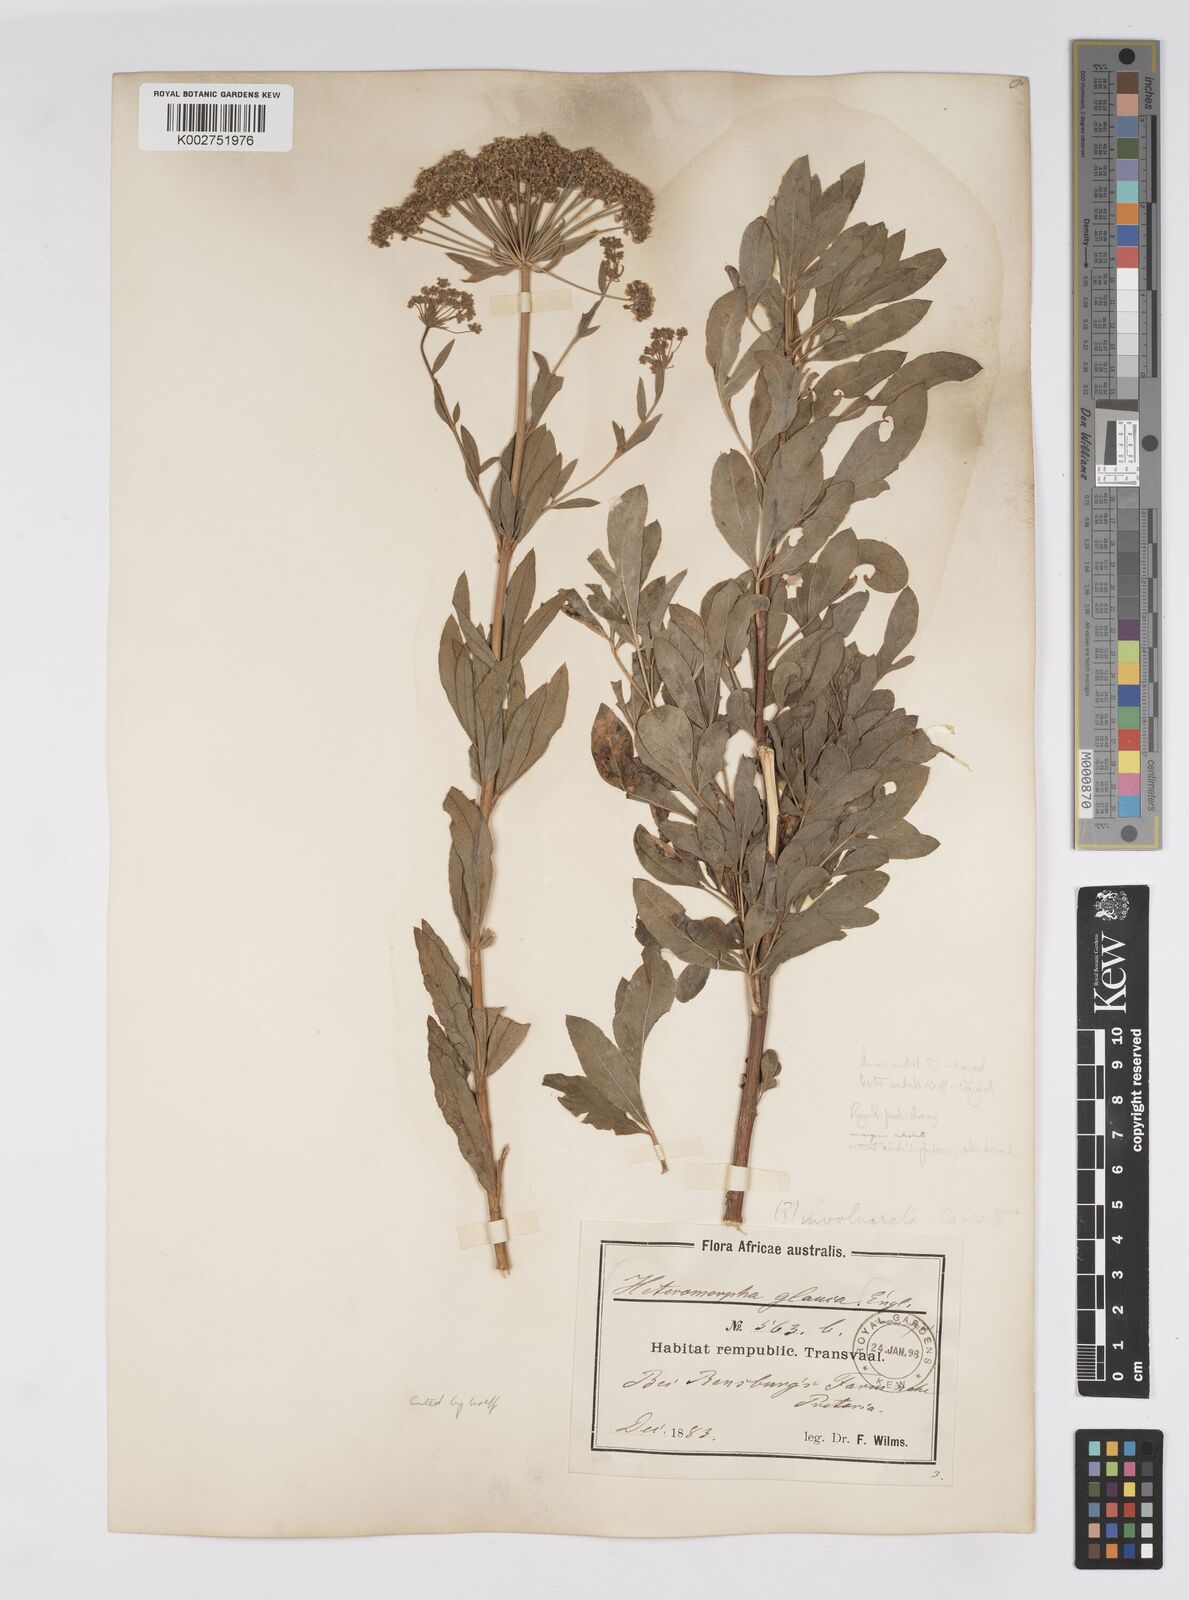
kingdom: Plantae
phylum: Tracheophyta
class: Magnoliopsida
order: Apiales
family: Apiaceae
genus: Heteromorpha
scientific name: Heteromorpha involucrata
